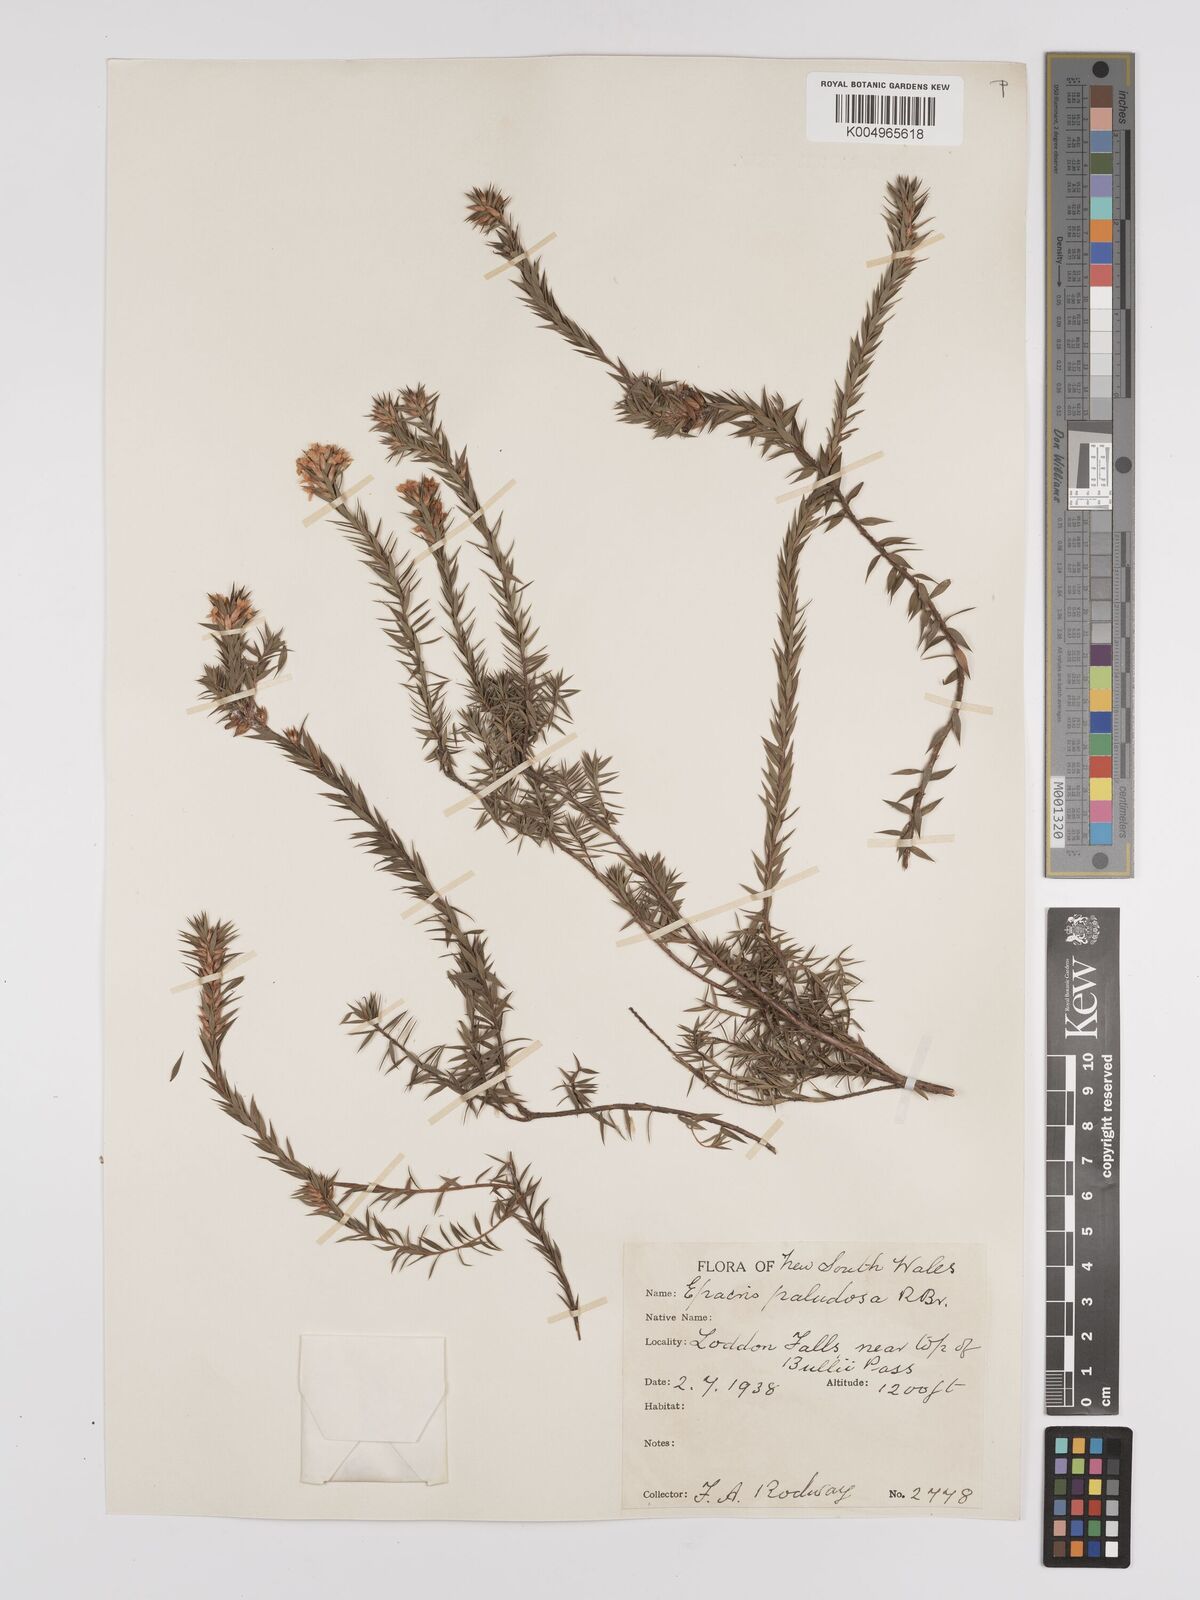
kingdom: Plantae
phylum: Tracheophyta
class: Magnoliopsida
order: Ericales
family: Ericaceae
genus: Epacris
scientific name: Epacris paludosa
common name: Swamp-heath
